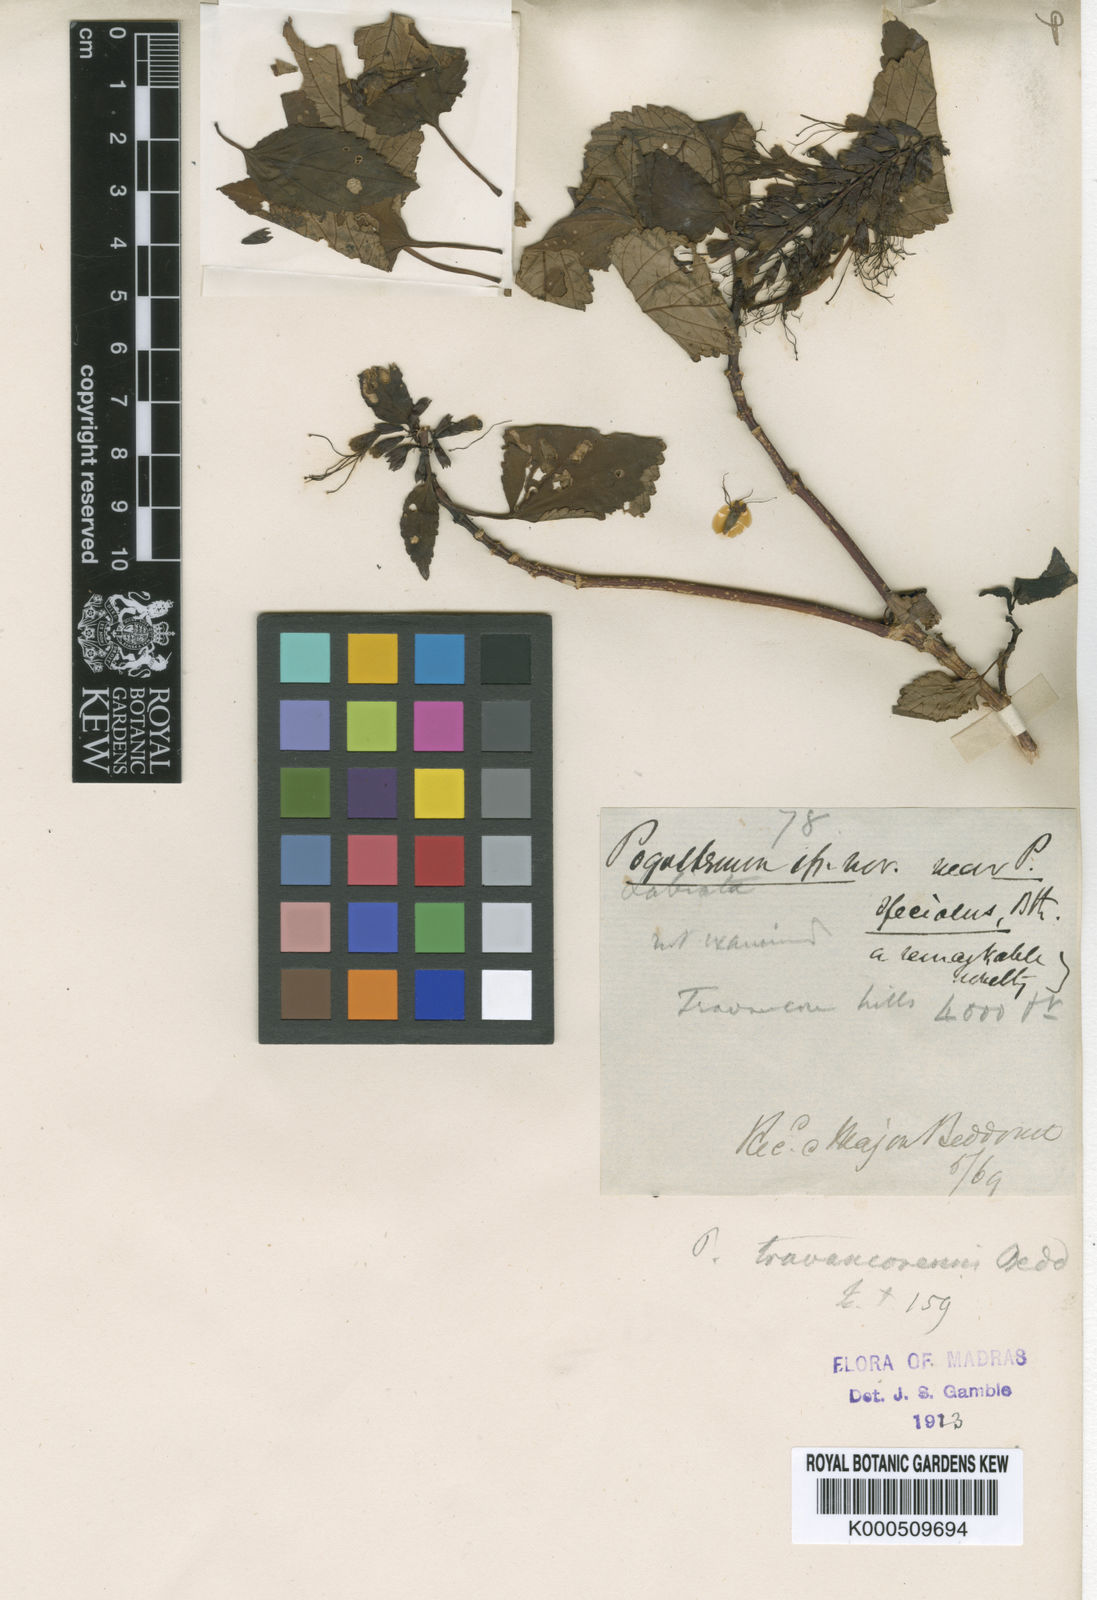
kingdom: Plantae
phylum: Tracheophyta
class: Magnoliopsida
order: Lamiales
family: Lamiaceae
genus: Pogostemon
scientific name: Pogostemon travancoricus
